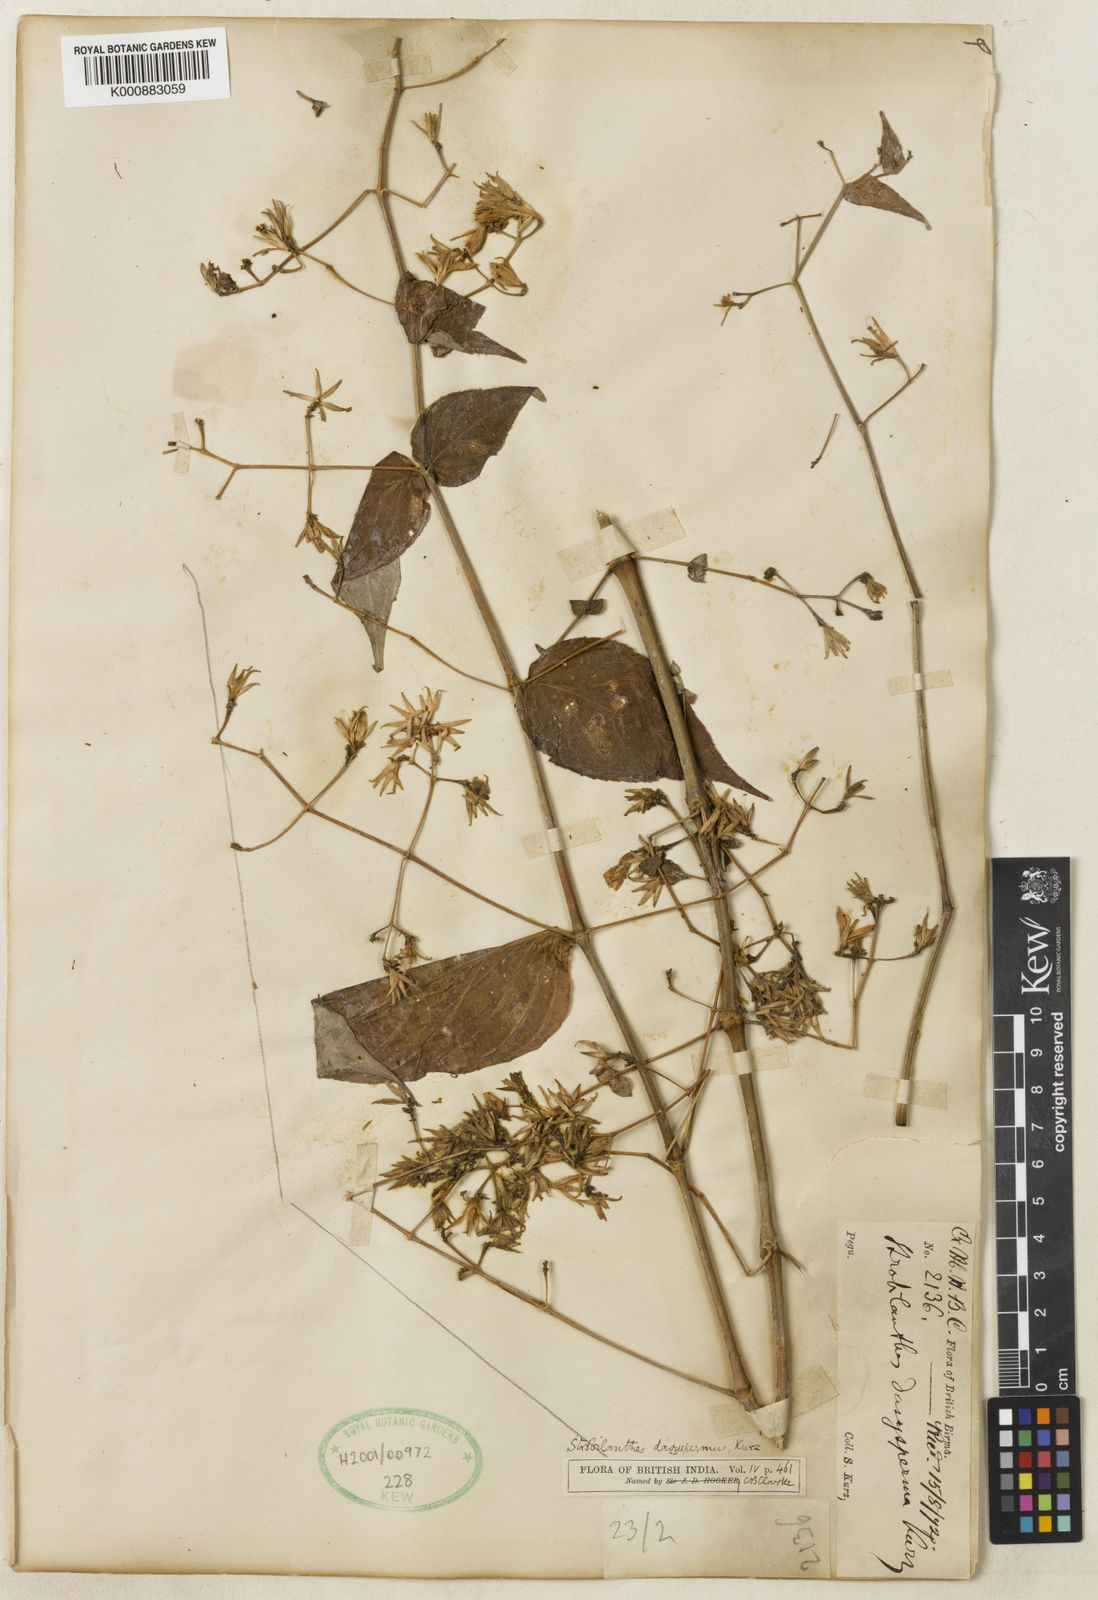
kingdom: Plantae
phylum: Tracheophyta
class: Magnoliopsida
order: Lamiales
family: Acanthaceae
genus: Strobilanthes
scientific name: Strobilanthes dasysperma
